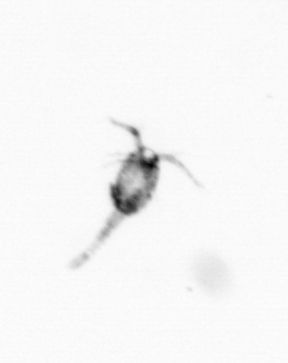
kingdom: Animalia
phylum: Arthropoda
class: Copepoda
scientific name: Copepoda
